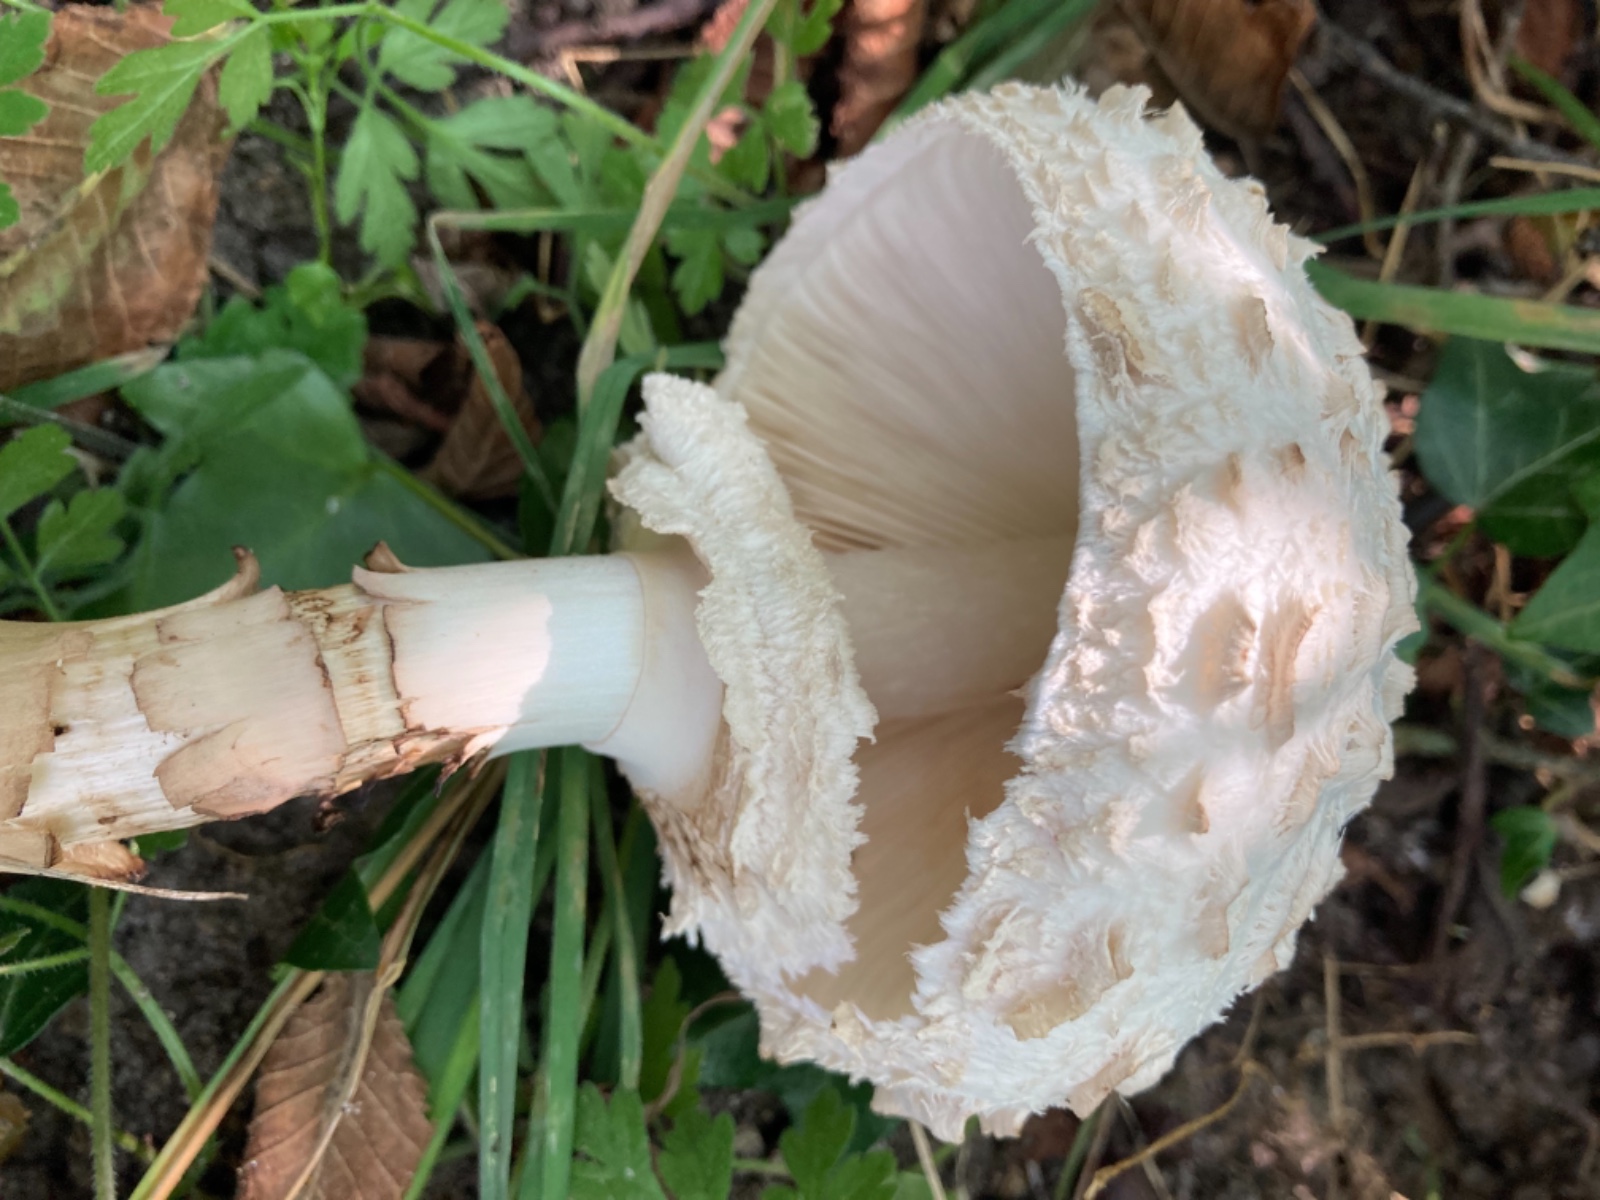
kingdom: Fungi
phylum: Basidiomycota
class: Agaricomycetes
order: Agaricales
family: Agaricaceae
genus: Chlorophyllum
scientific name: Chlorophyllum rhacodes
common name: ægte rabarberhat
